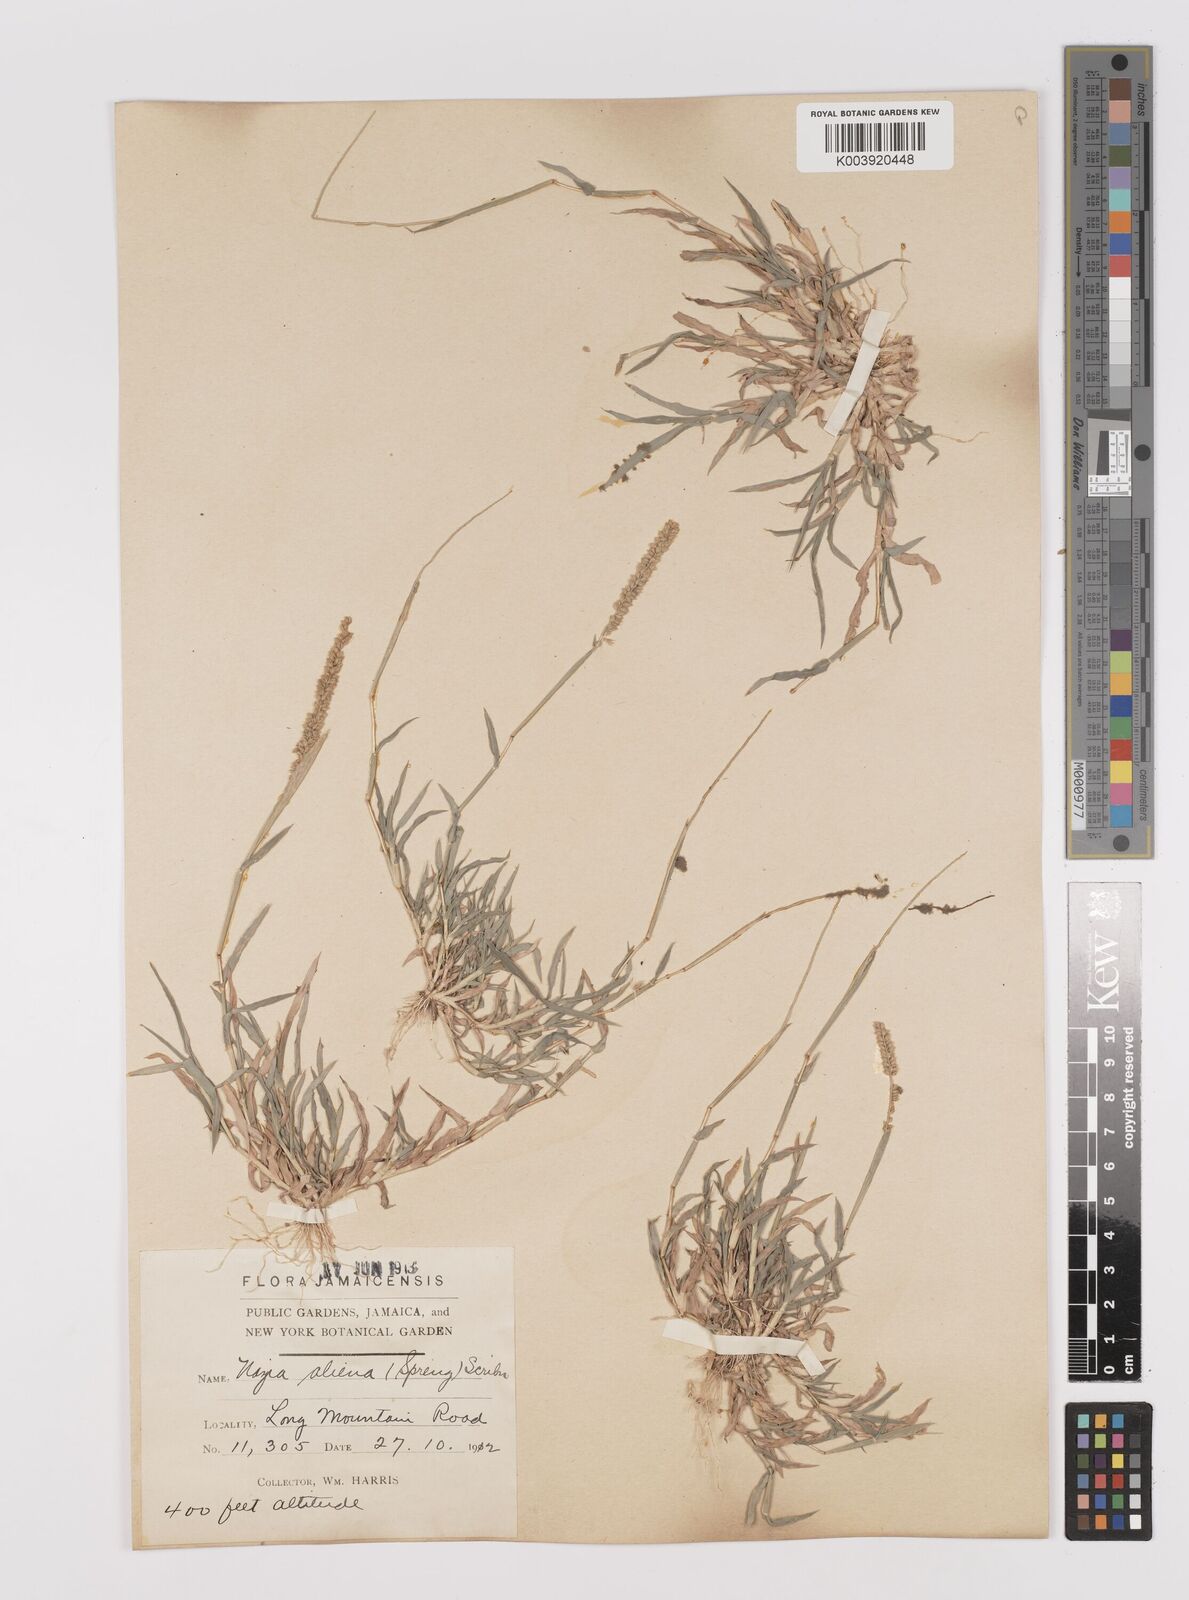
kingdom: Plantae
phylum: Tracheophyta
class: Liliopsida
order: Poales
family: Poaceae
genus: Tragus
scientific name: Tragus berteronianus
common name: African bur-grass
